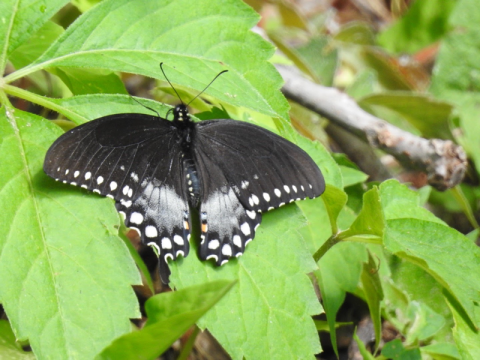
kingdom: Animalia
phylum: Arthropoda
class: Insecta
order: Lepidoptera
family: Papilionidae
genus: Pterourus
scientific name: Pterourus troilus
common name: Spicebush Swallowtail
